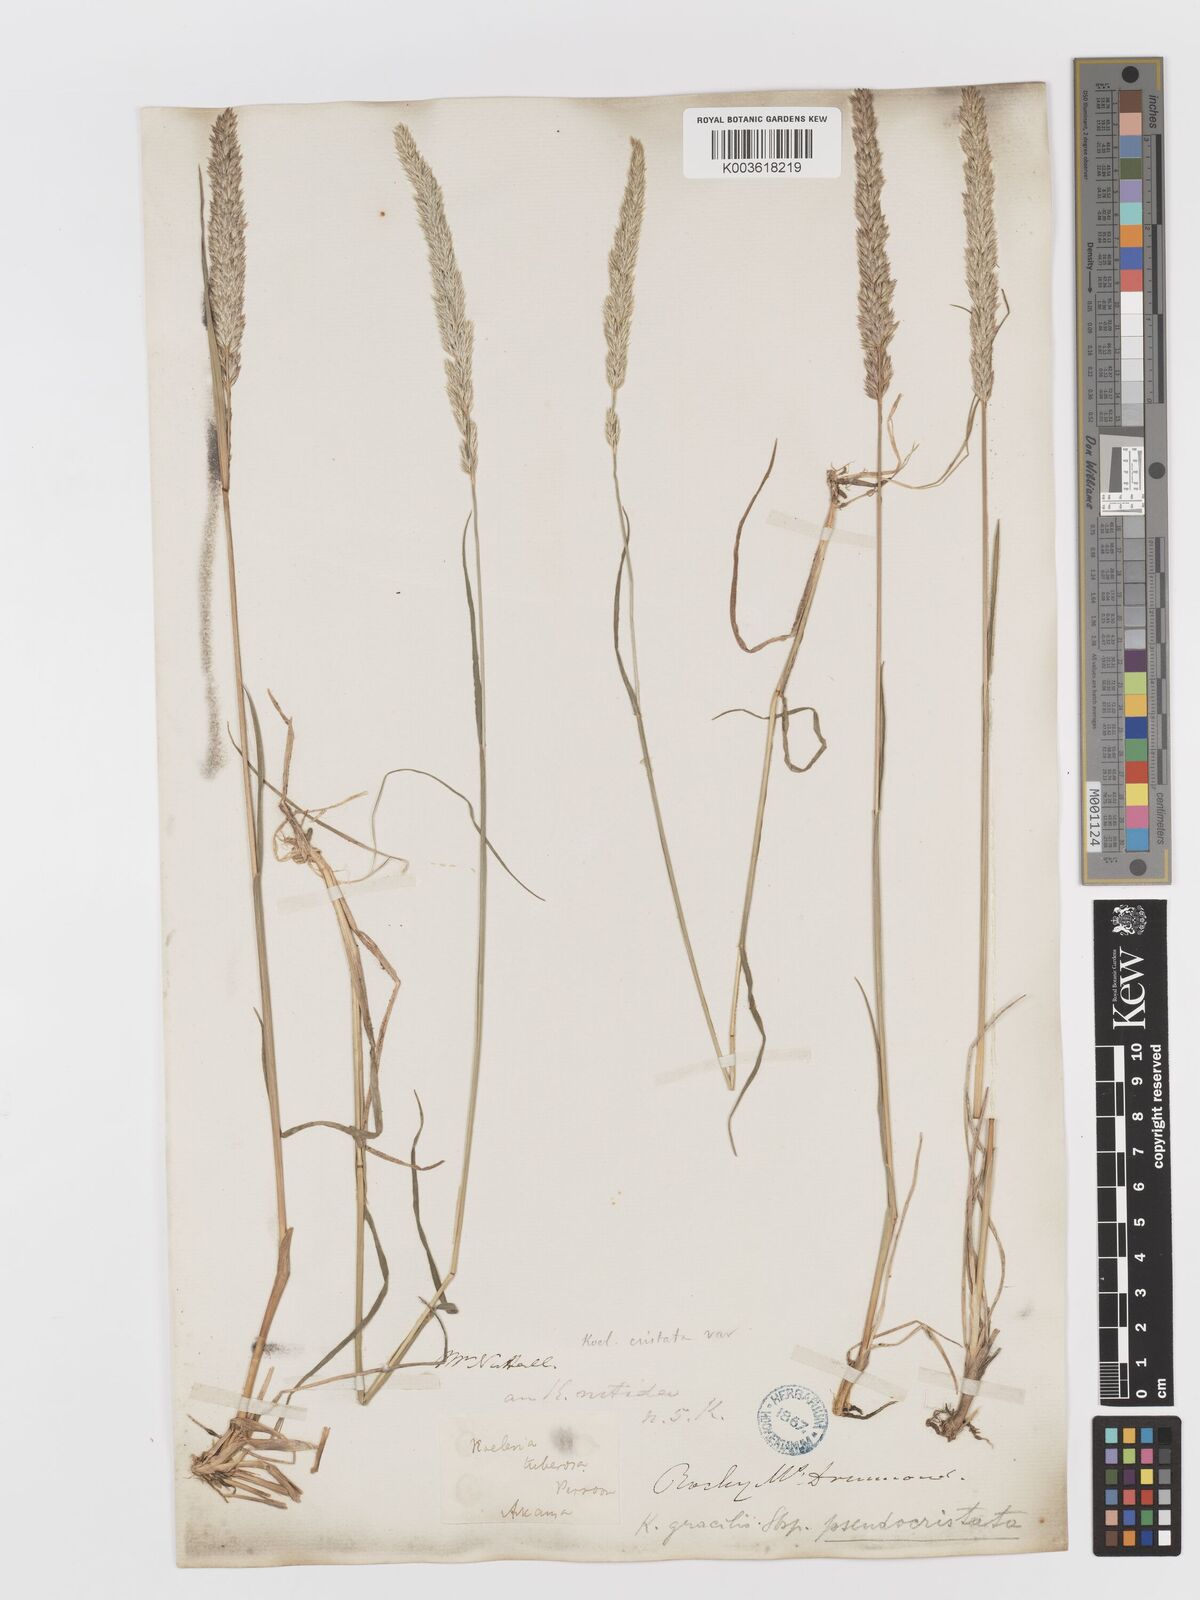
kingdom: Plantae
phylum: Tracheophyta
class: Liliopsida
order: Poales
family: Poaceae
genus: Koeleria
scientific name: Koeleria macrantha
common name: Crested hair-grass
